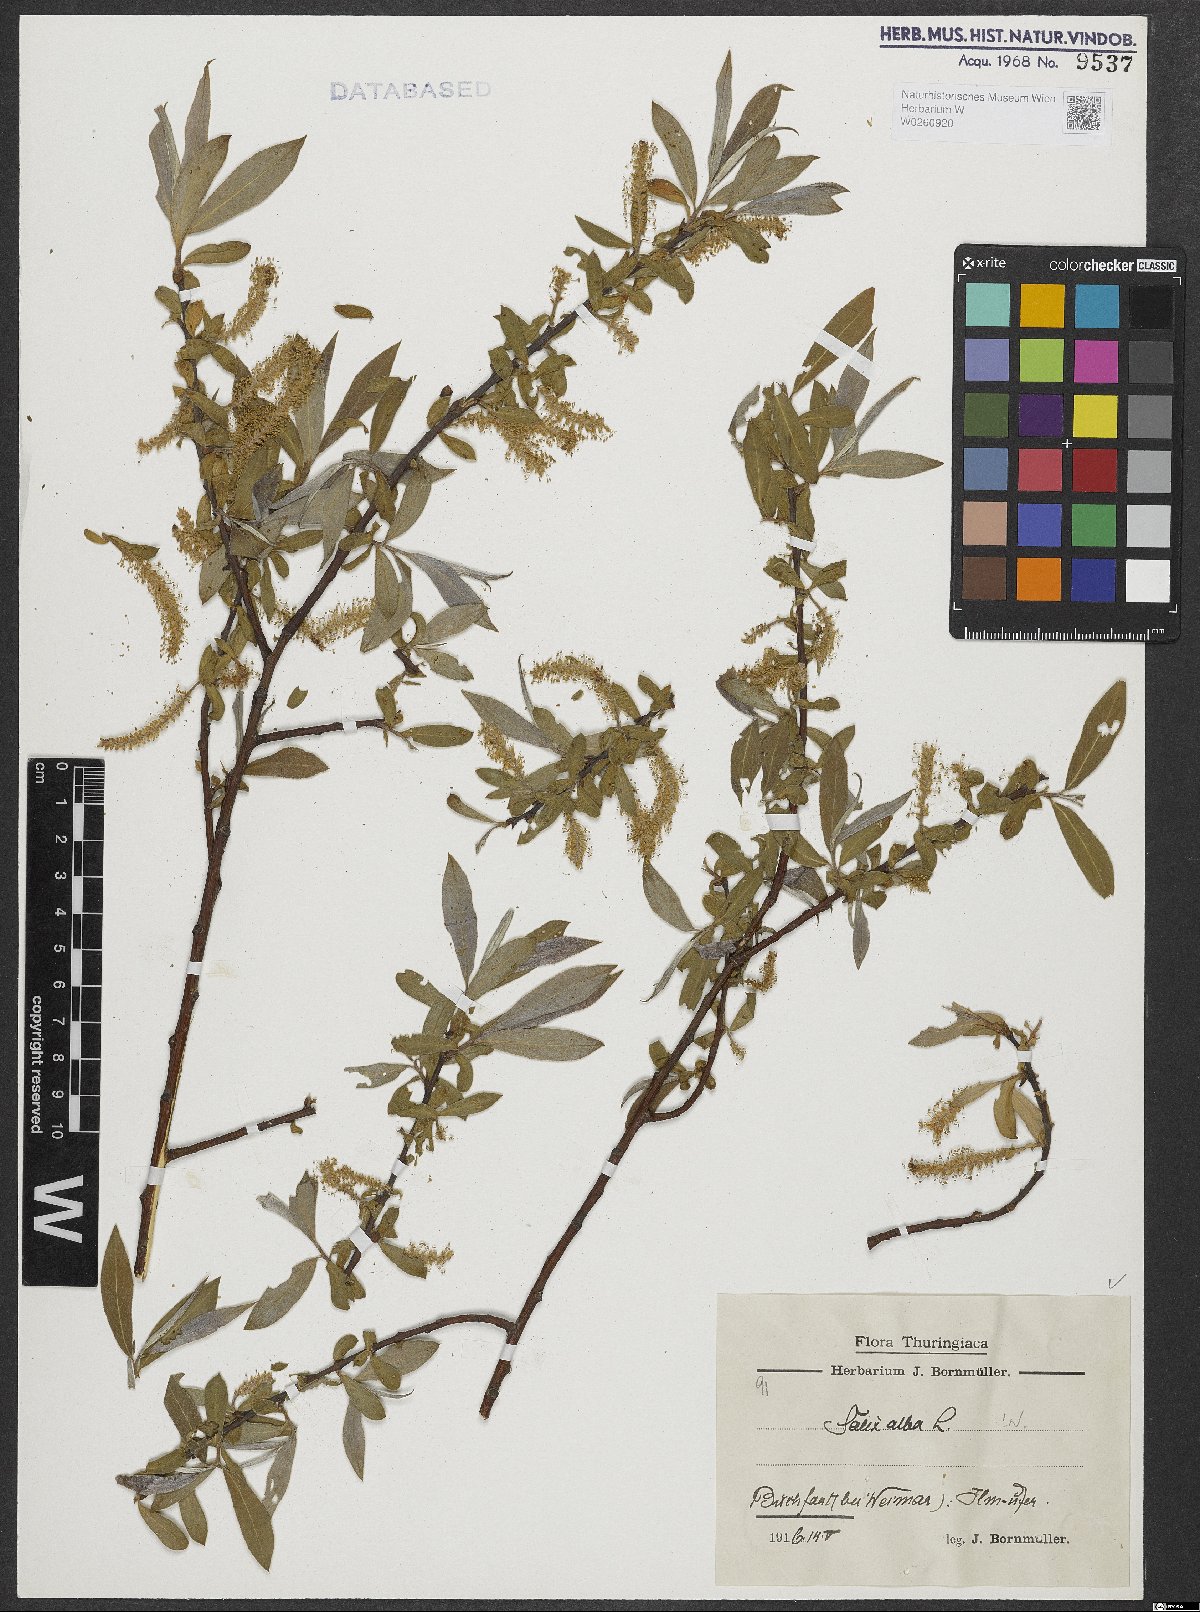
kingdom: Plantae
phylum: Tracheophyta
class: Magnoliopsida
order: Malpighiales
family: Salicaceae
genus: Salix
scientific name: Salix alba
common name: White willow
